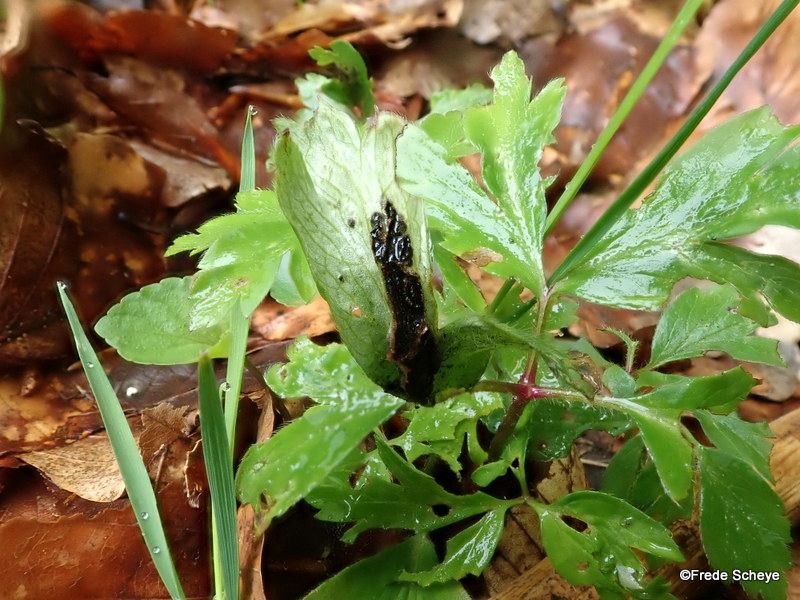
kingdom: Fungi
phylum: Basidiomycota
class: Ustilaginomycetes
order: Urocystidales
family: Urocystidaceae
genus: Urocystis
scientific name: Urocystis anemones
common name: anemone-brand
